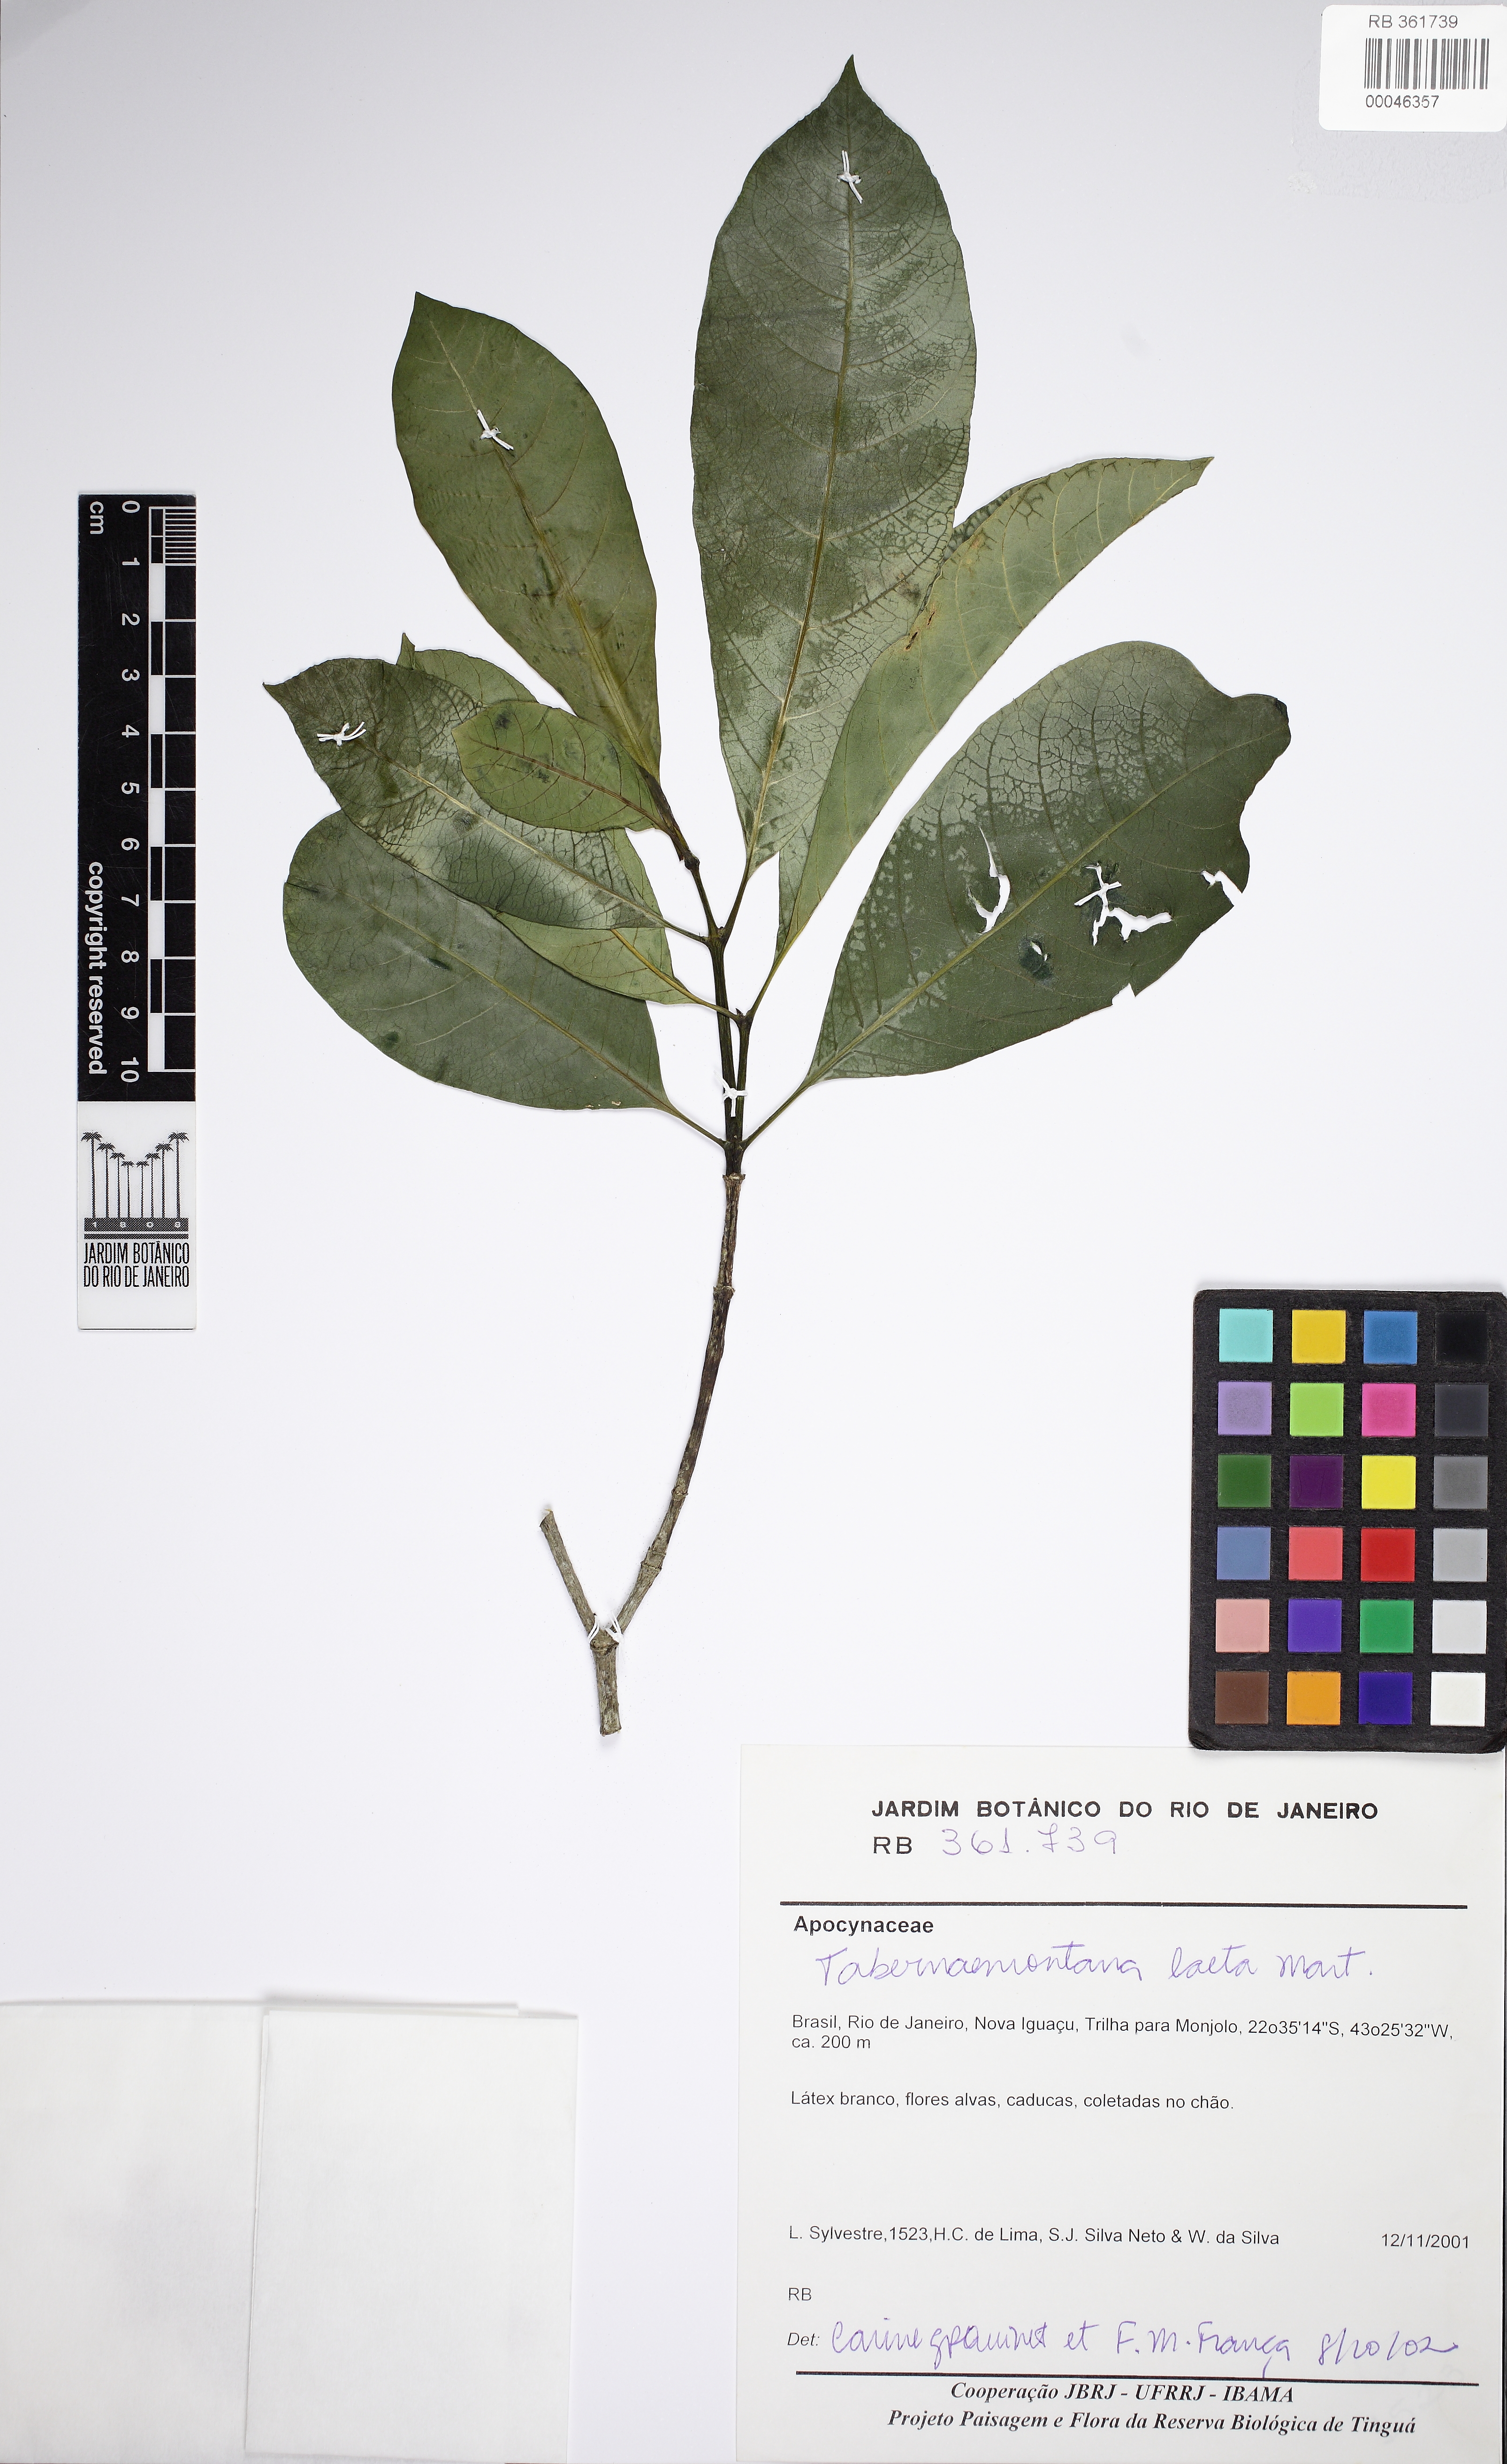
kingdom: Plantae
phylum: Tracheophyta
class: Magnoliopsida
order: Gentianales
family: Apocynaceae
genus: Tabernaemontana
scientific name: Tabernaemontana laeta
